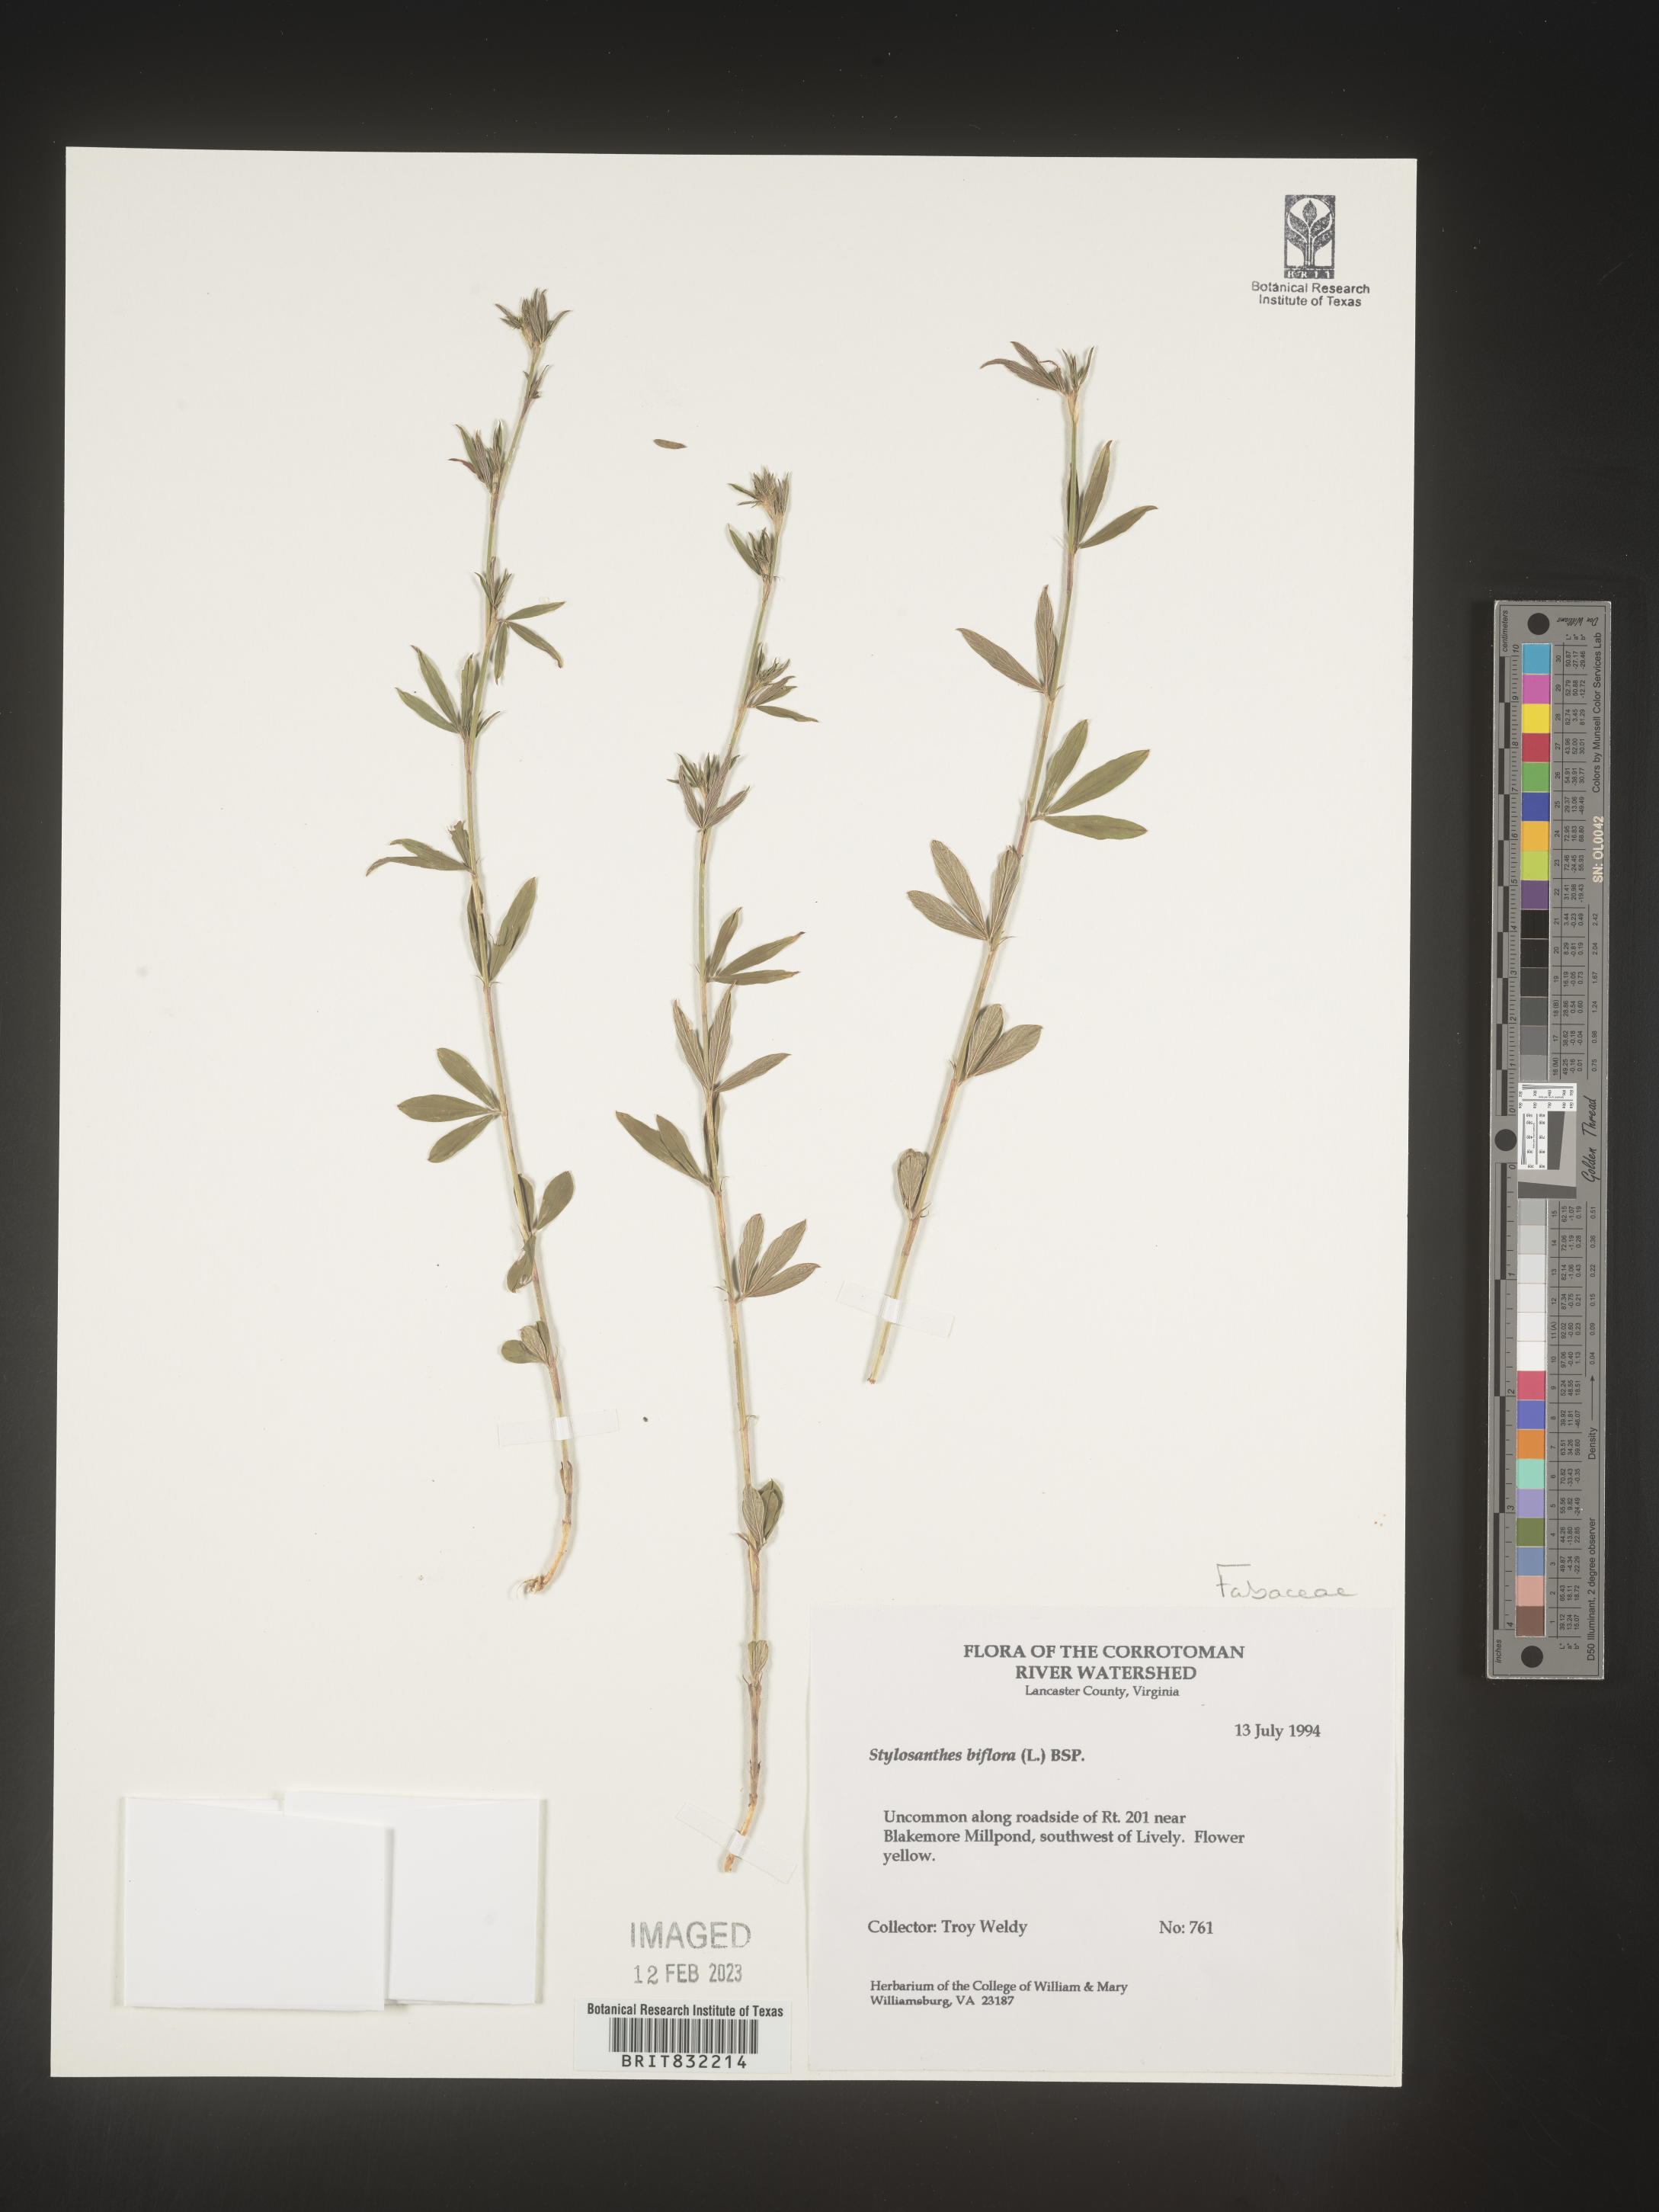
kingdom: Plantae
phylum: Tracheophyta
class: Magnoliopsida
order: Fabales
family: Fabaceae
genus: Stylosanthes
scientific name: Stylosanthes biflora
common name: Two-flower pencil-flower
